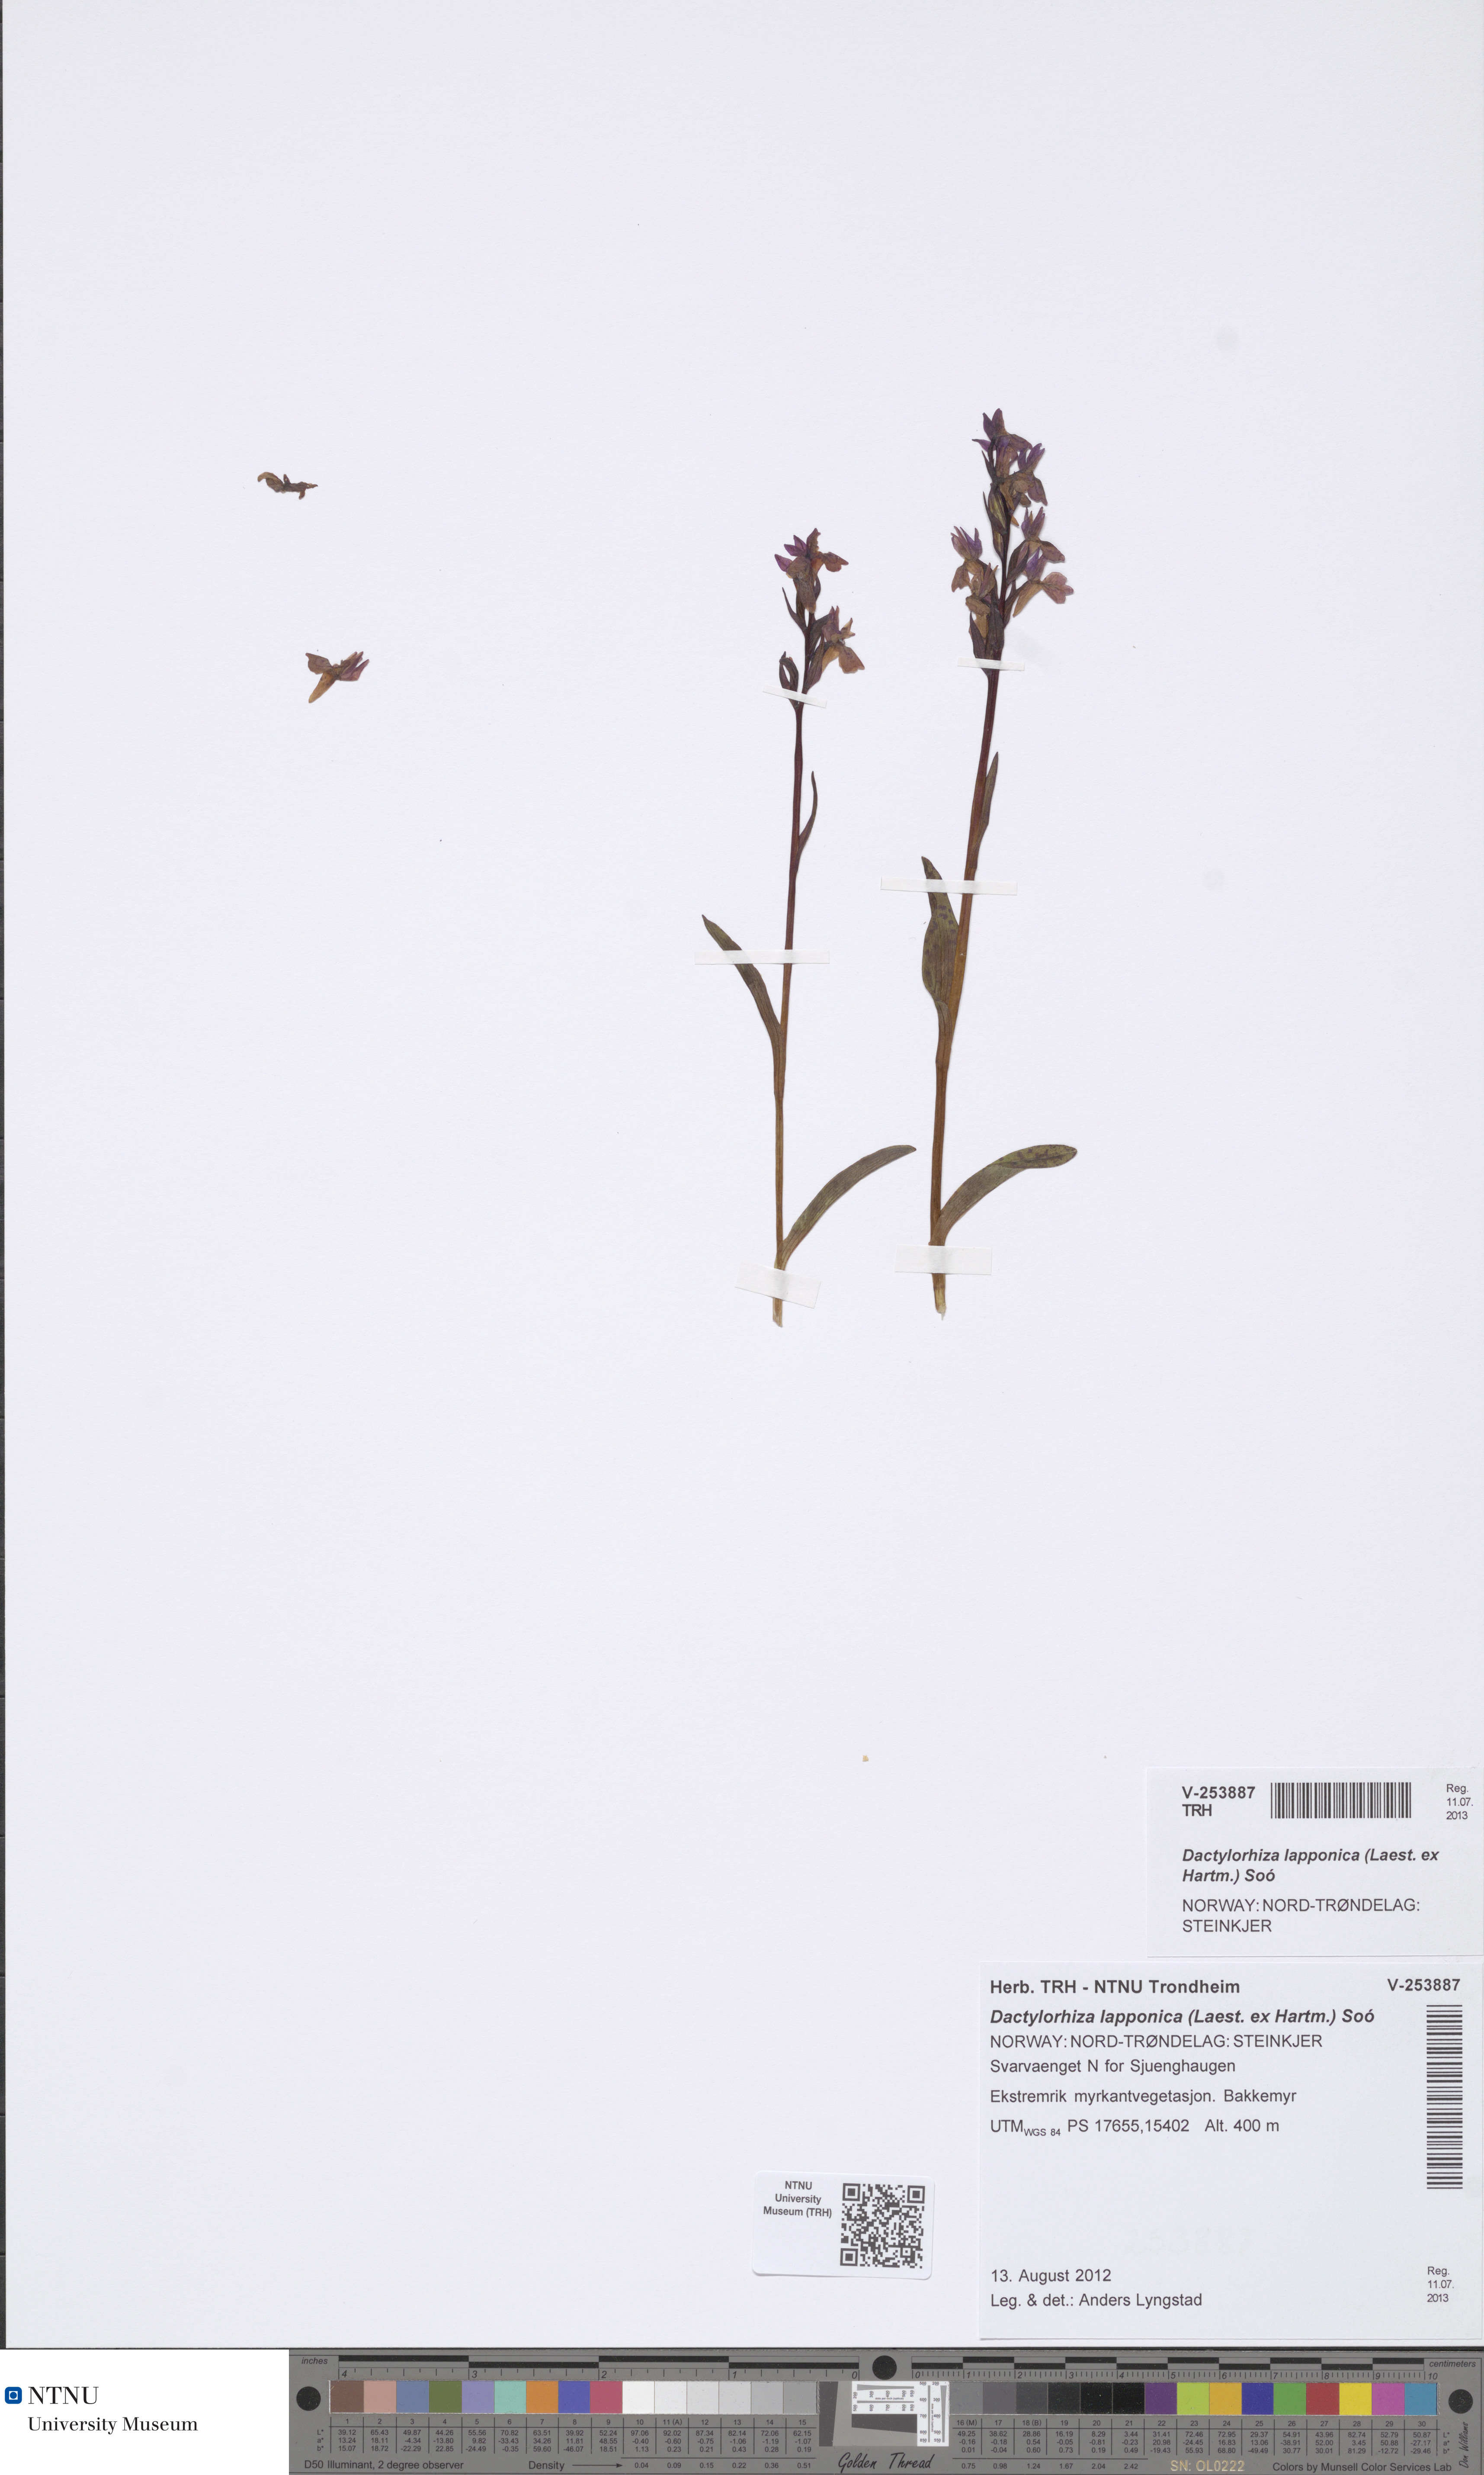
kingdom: Plantae
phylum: Tracheophyta
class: Liliopsida
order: Asparagales
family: Orchidaceae
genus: Dactylorhiza
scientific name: Dactylorhiza majalis
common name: Marsh orchid
